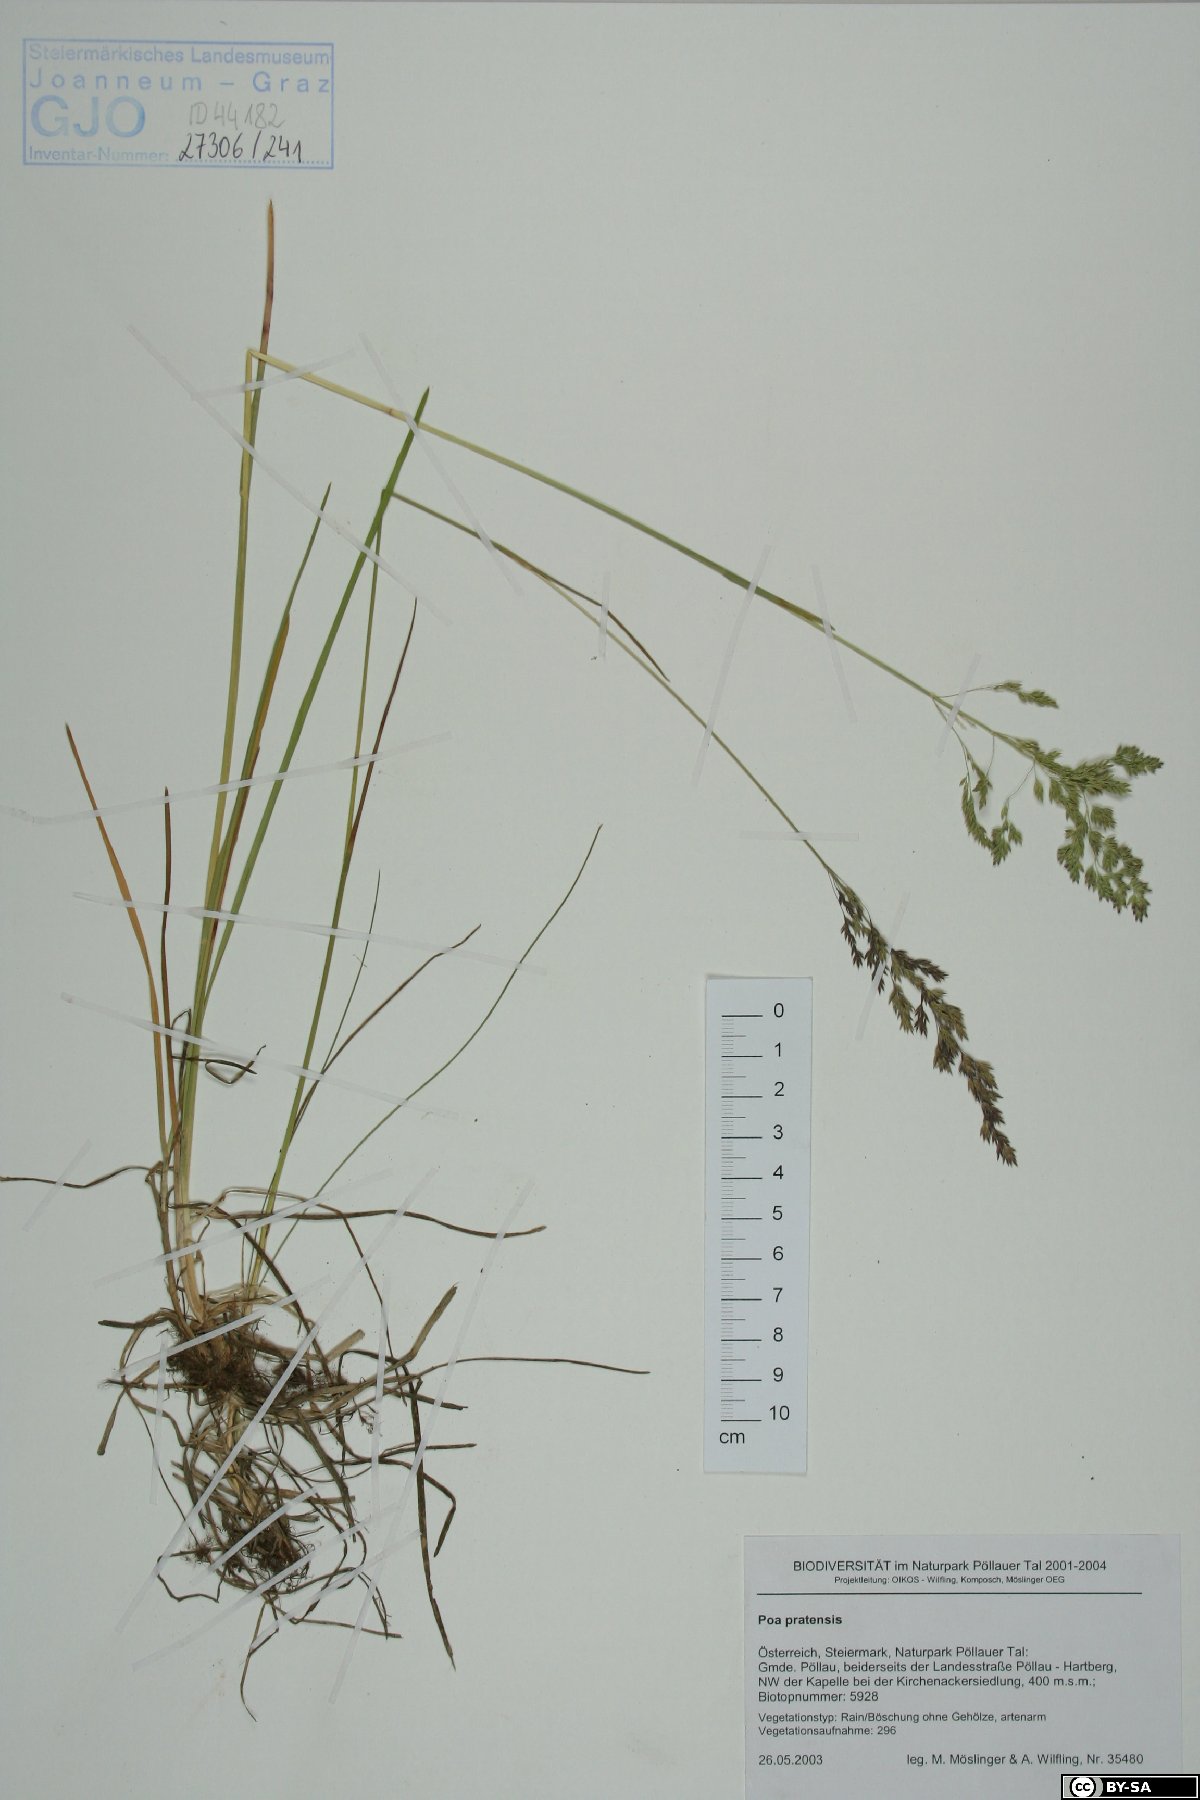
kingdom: Plantae
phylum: Tracheophyta
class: Liliopsida
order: Poales
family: Poaceae
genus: Poa
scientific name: Poa pratensis
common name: Kentucky bluegrass
